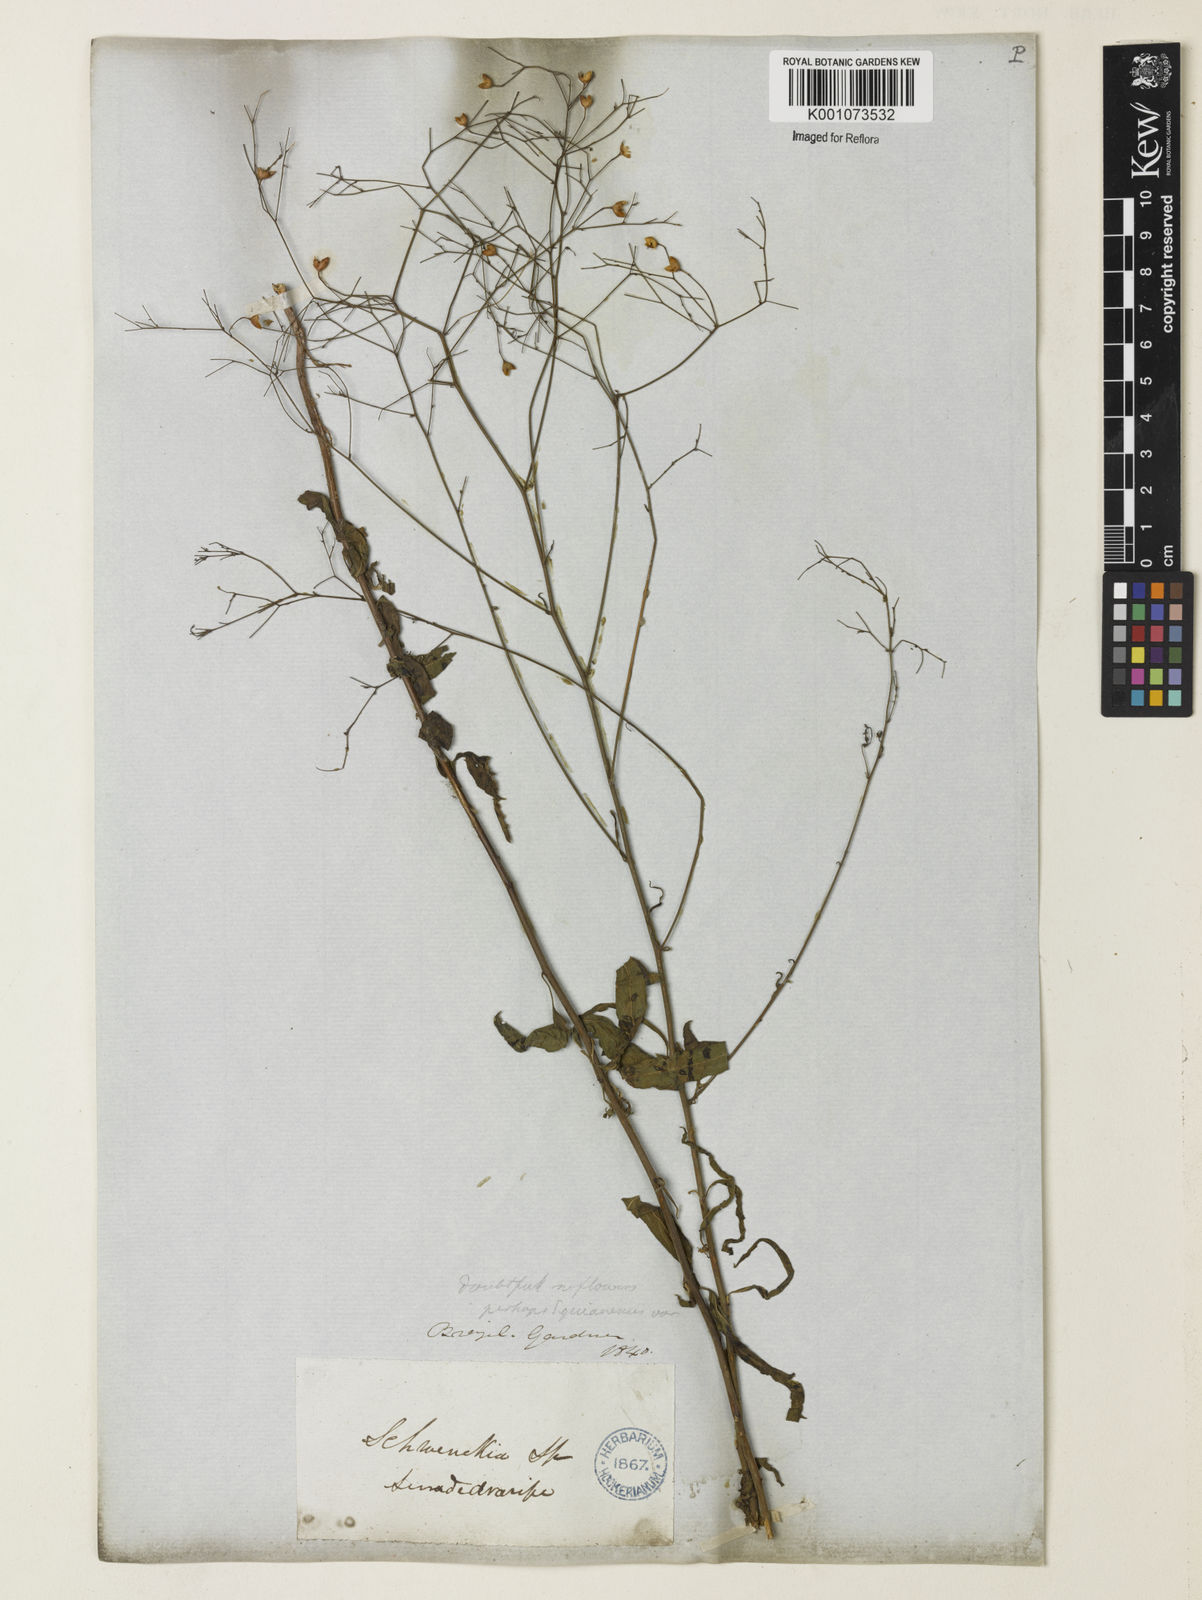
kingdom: Plantae
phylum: Tracheophyta
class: Magnoliopsida
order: Solanales
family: Solanaceae
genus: Schwenckia
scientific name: Schwenckia americana
